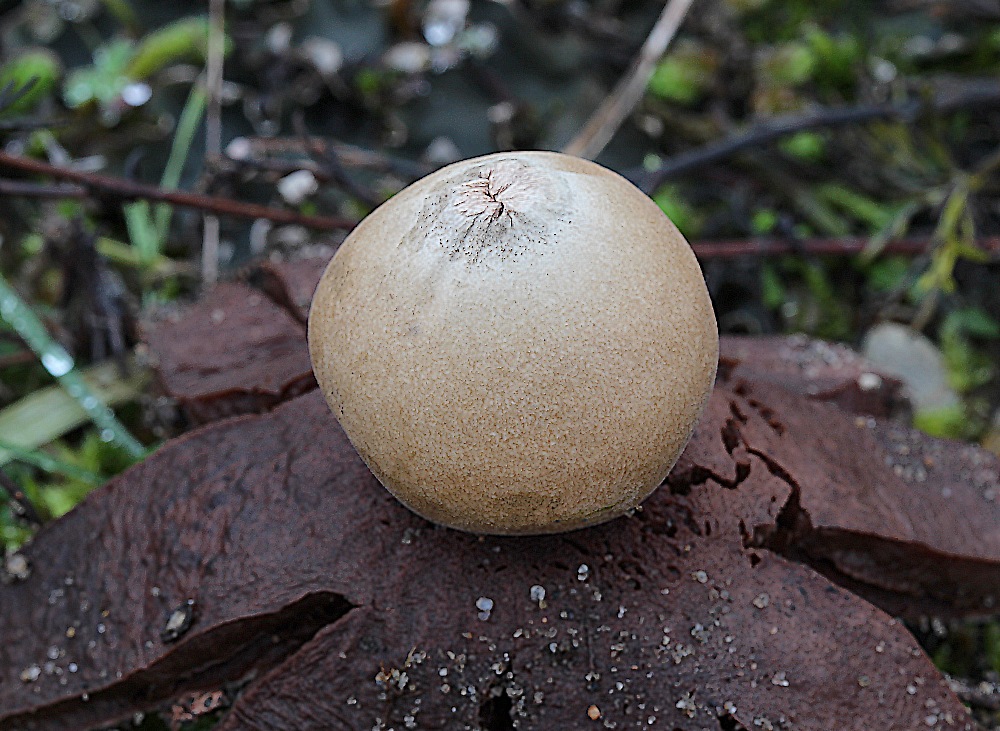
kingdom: Fungi
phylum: Basidiomycota
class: Agaricomycetes
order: Geastrales
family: Geastraceae
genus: Geastrum
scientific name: Geastrum rufescens
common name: kødfarvet stjernebold
